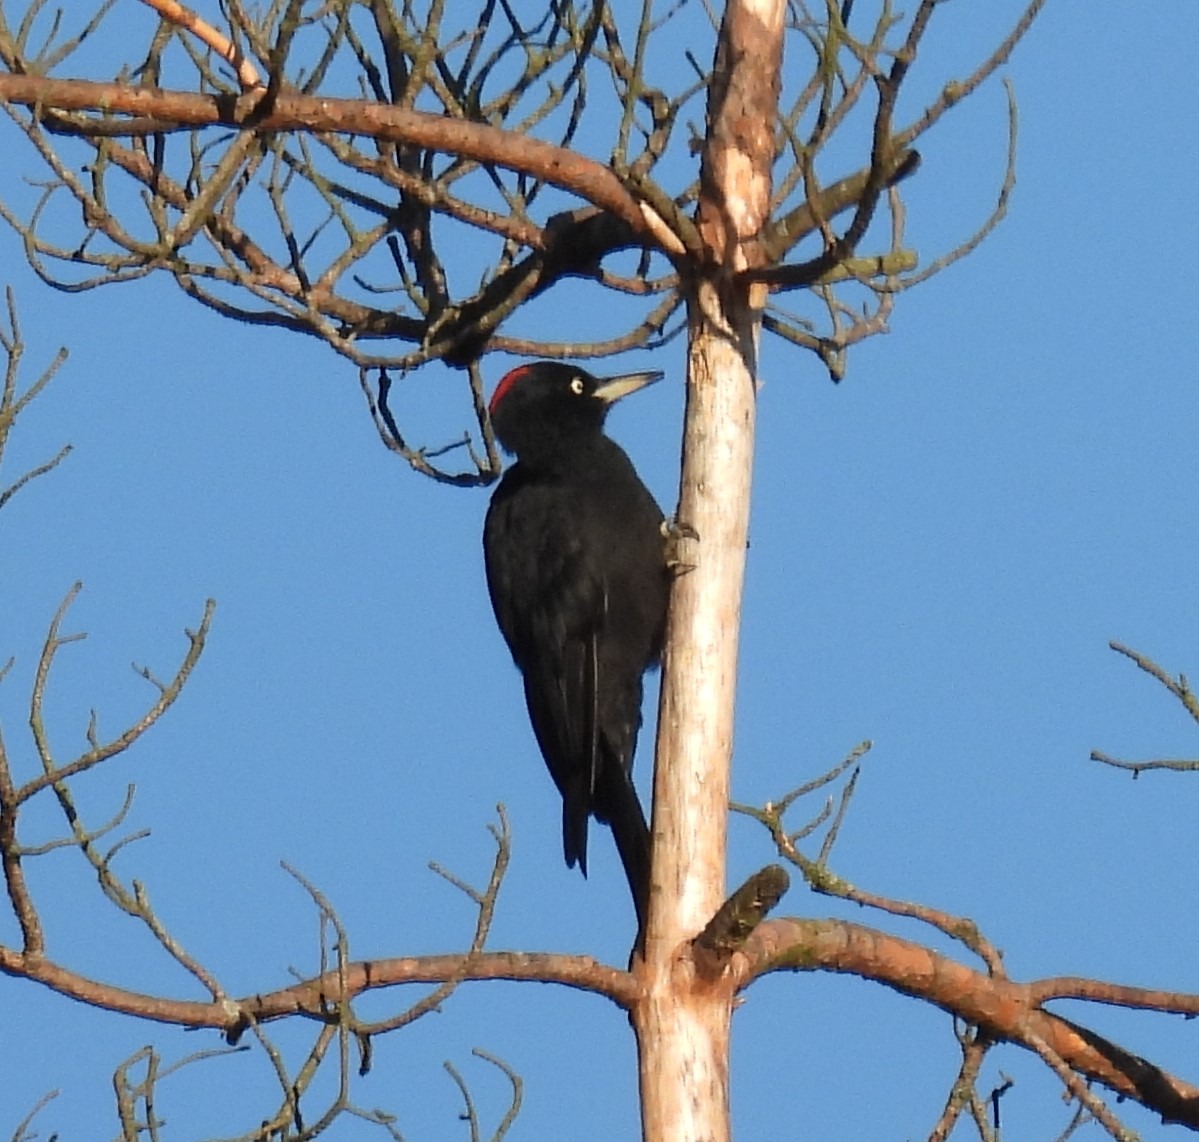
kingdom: Animalia
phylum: Chordata
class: Aves
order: Piciformes
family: Picidae
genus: Dryocopus
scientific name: Dryocopus martius
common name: Sortspætte
